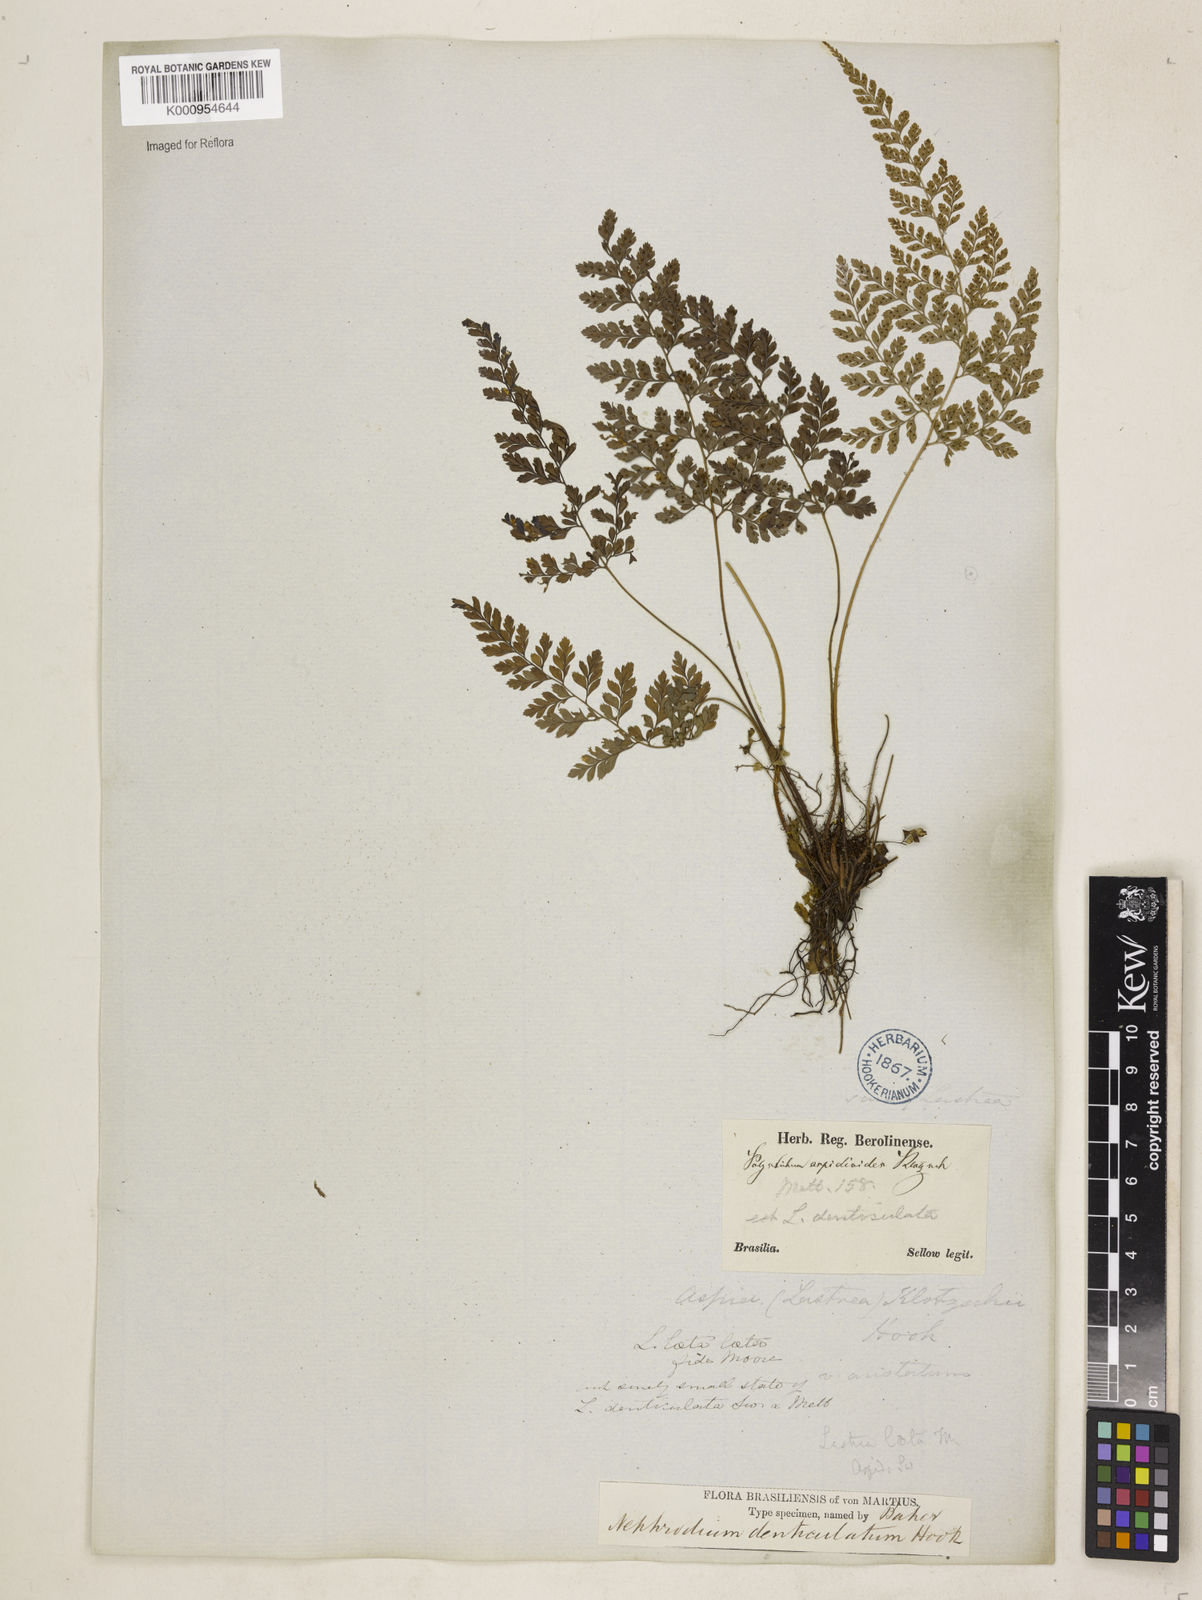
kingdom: Plantae
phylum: Tracheophyta
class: Polypodiopsida
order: Polypodiales
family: Dryopteridaceae
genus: Arachniodes
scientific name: Arachniodes denticulata
